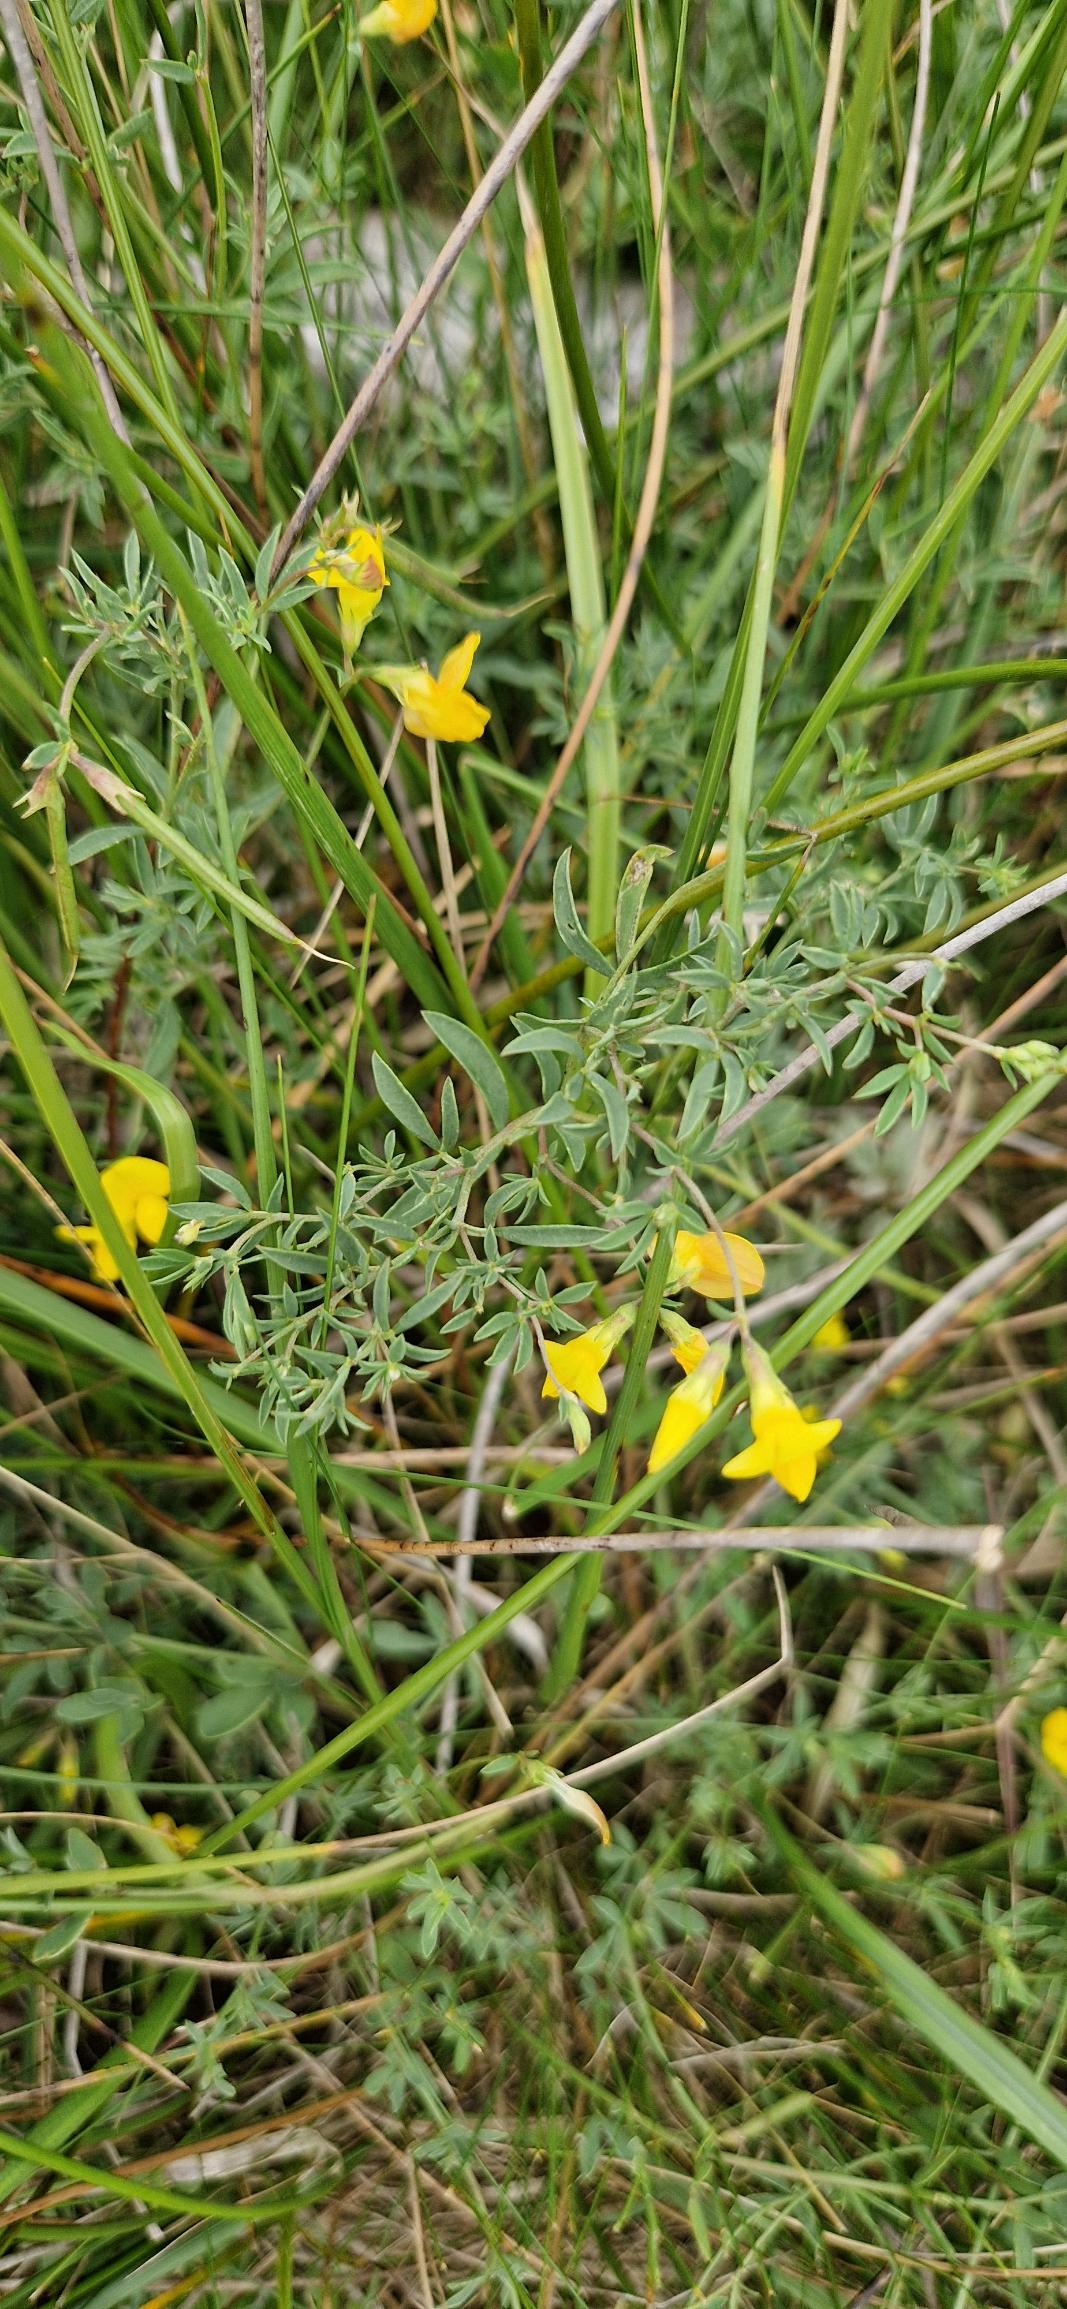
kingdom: Plantae
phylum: Tracheophyta
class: Magnoliopsida
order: Fabales
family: Fabaceae
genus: Lotus
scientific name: Lotus tenuis
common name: Smalbladet kællingetand
